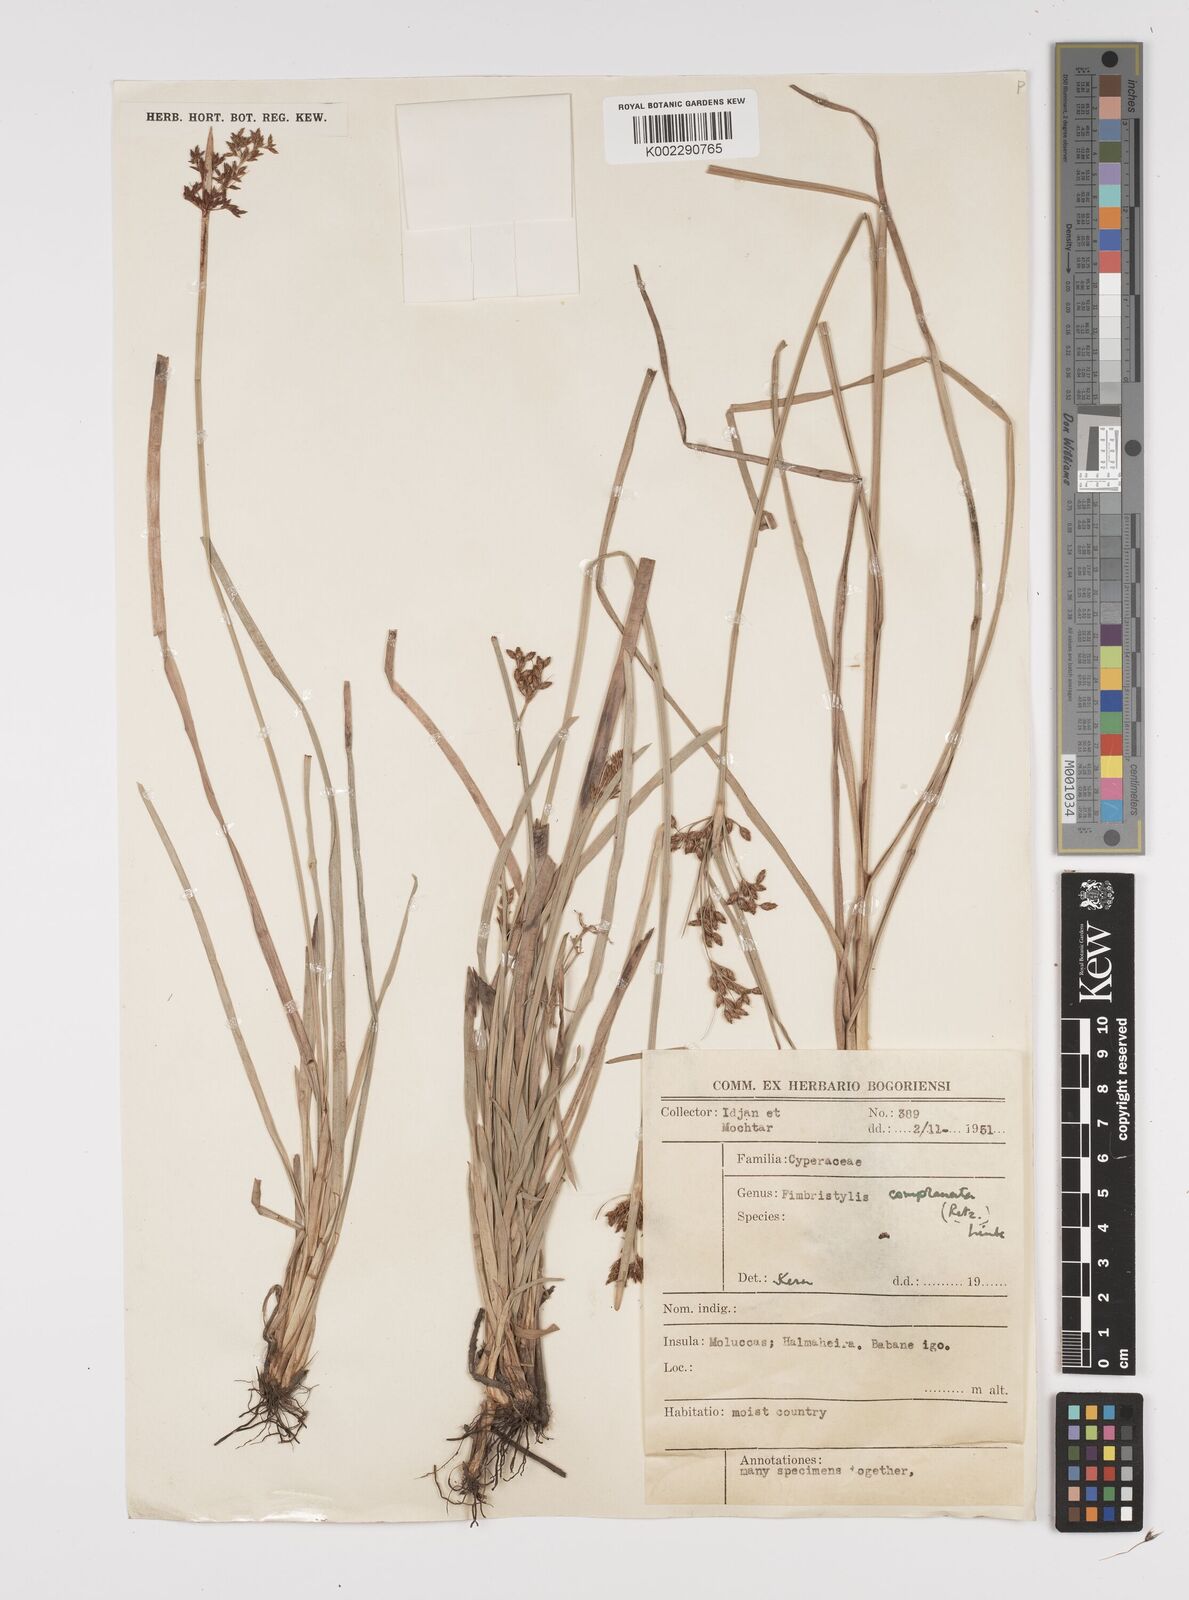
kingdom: Plantae
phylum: Tracheophyta
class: Liliopsida
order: Poales
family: Cyperaceae
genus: Fimbristylis
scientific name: Fimbristylis complanata
